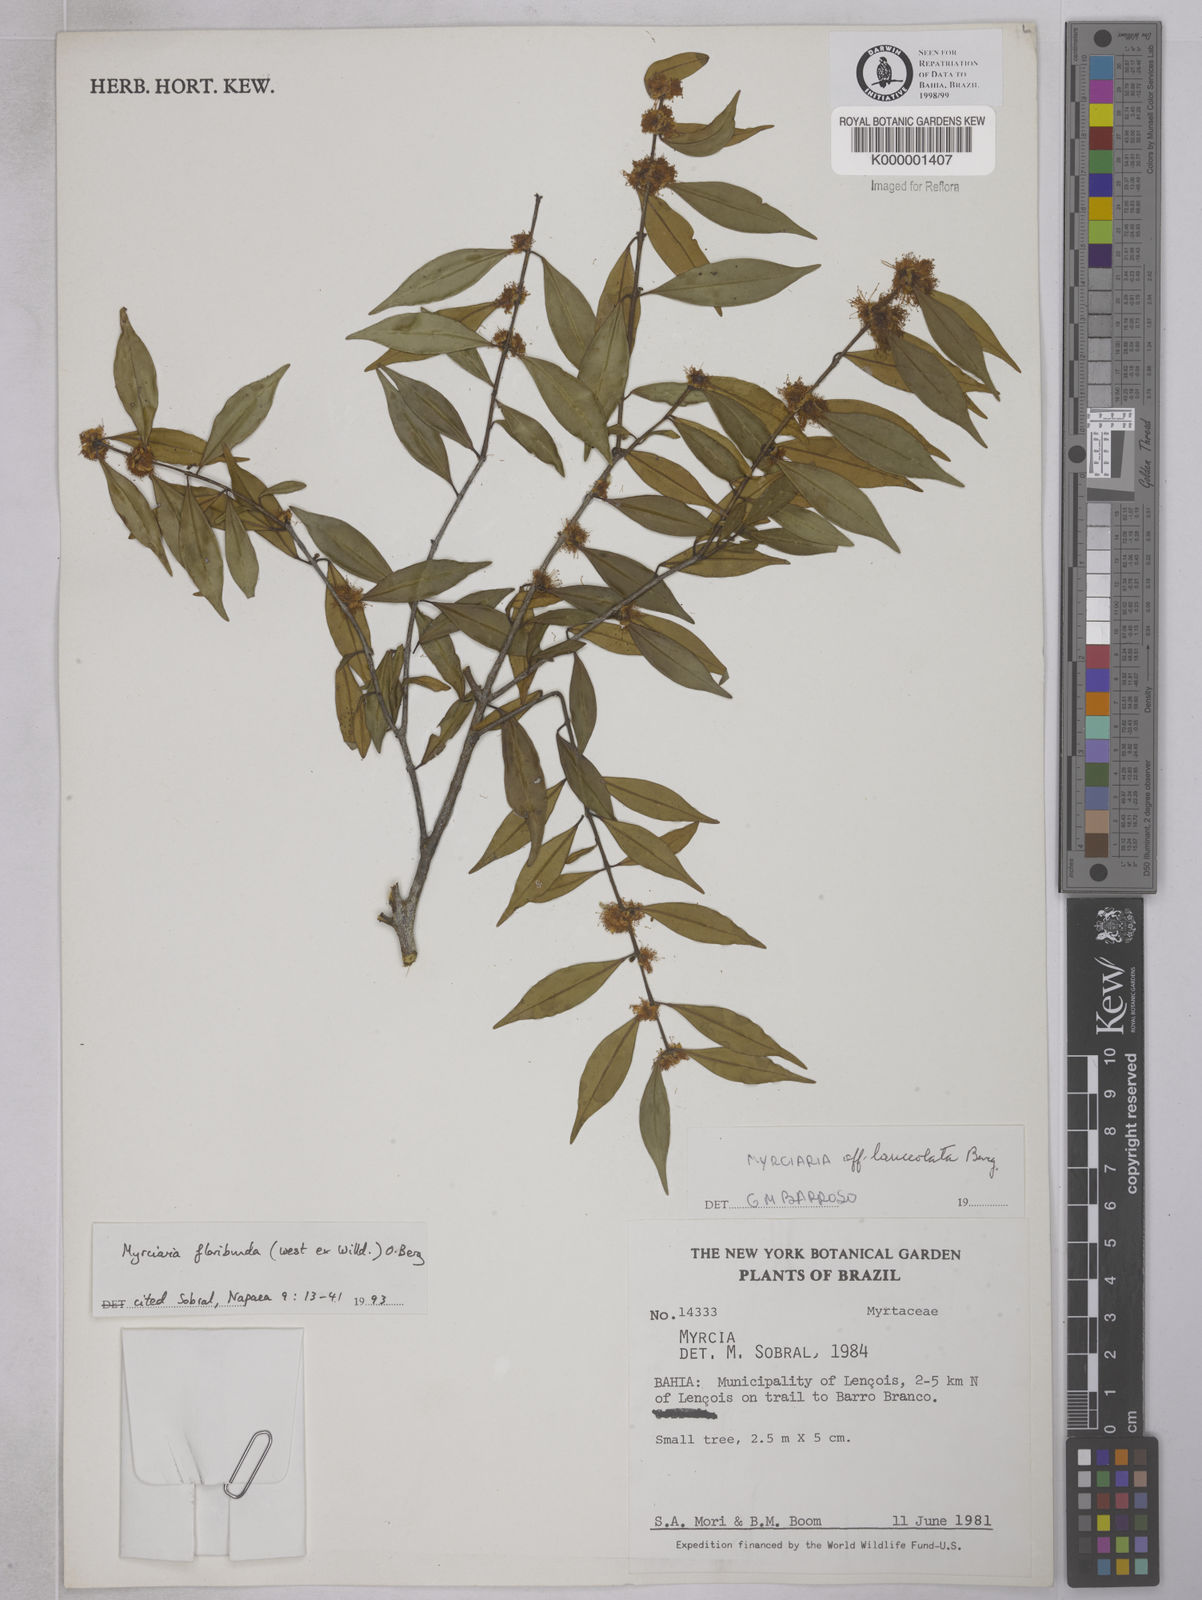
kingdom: Plantae
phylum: Tracheophyta
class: Magnoliopsida
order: Myrtales
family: Myrtaceae
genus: Myrciaria
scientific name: Myrciaria dubia
